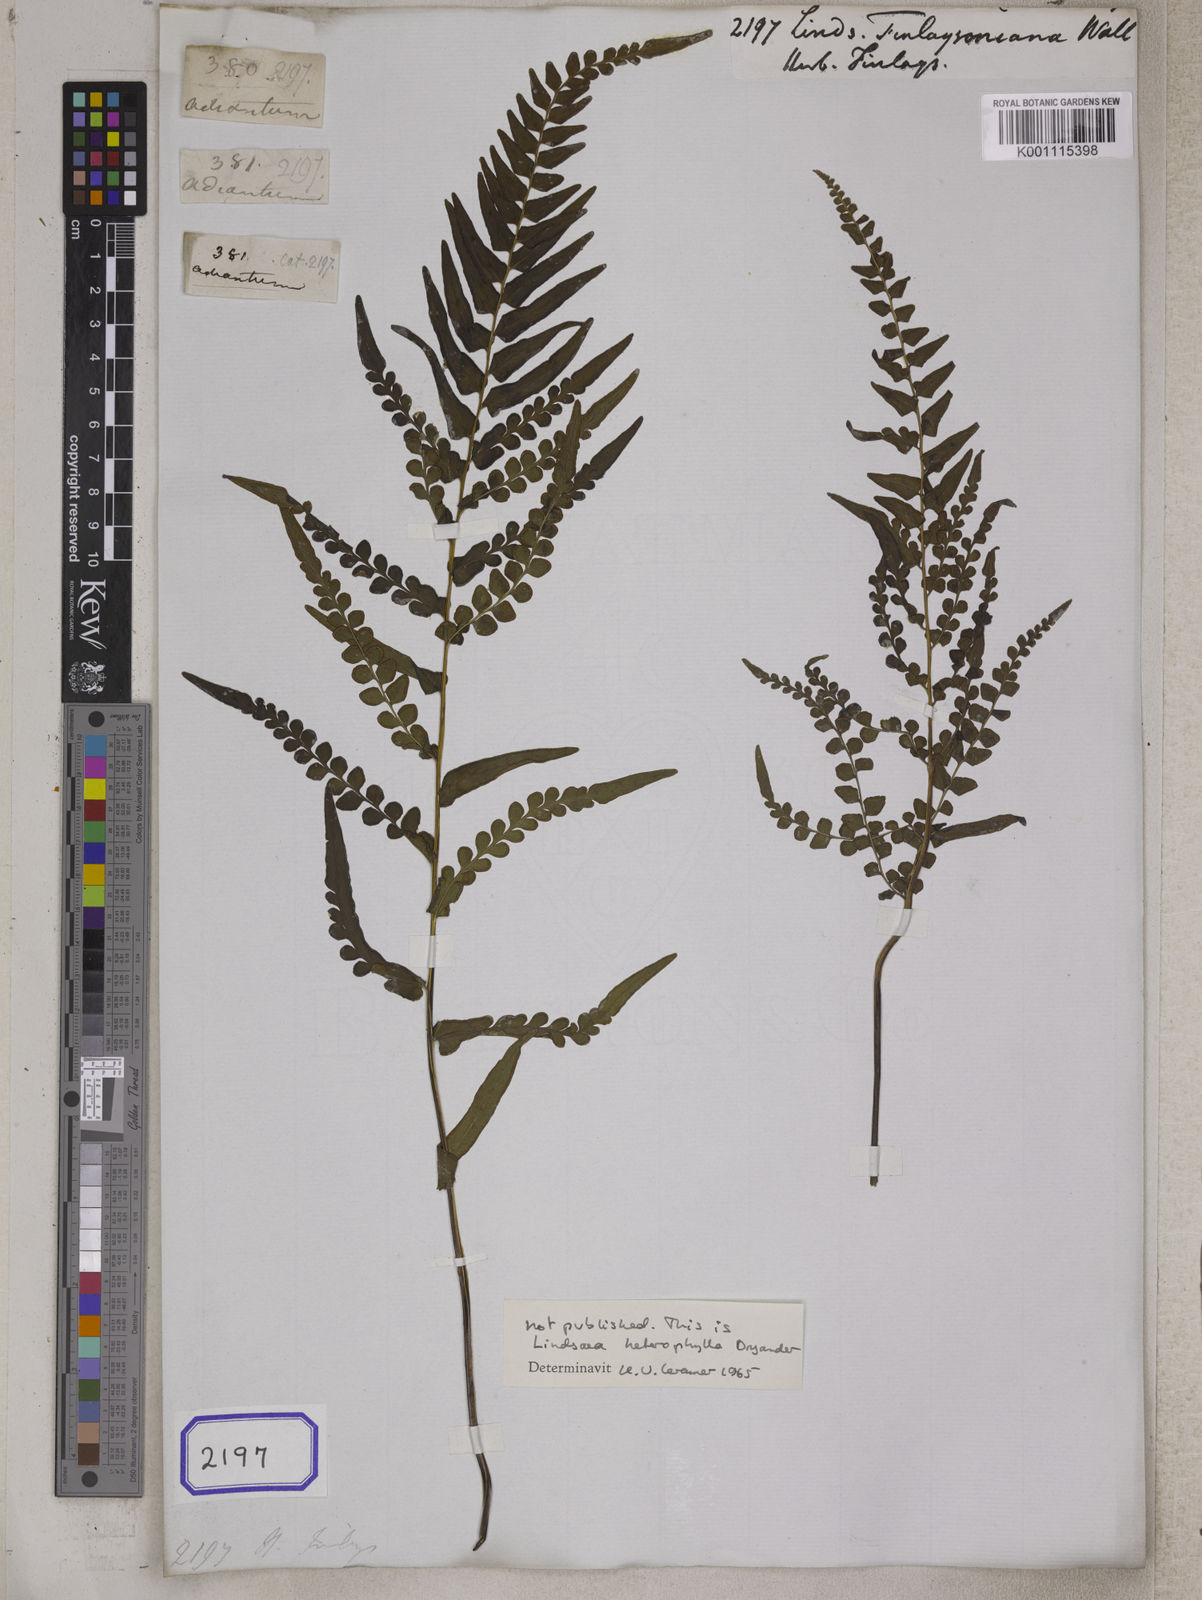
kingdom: Plantae
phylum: Tracheophyta
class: Polypodiopsida
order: Polypodiales
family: Lindsaeaceae
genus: Lindsaea
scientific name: Lindsaea heterophylla
